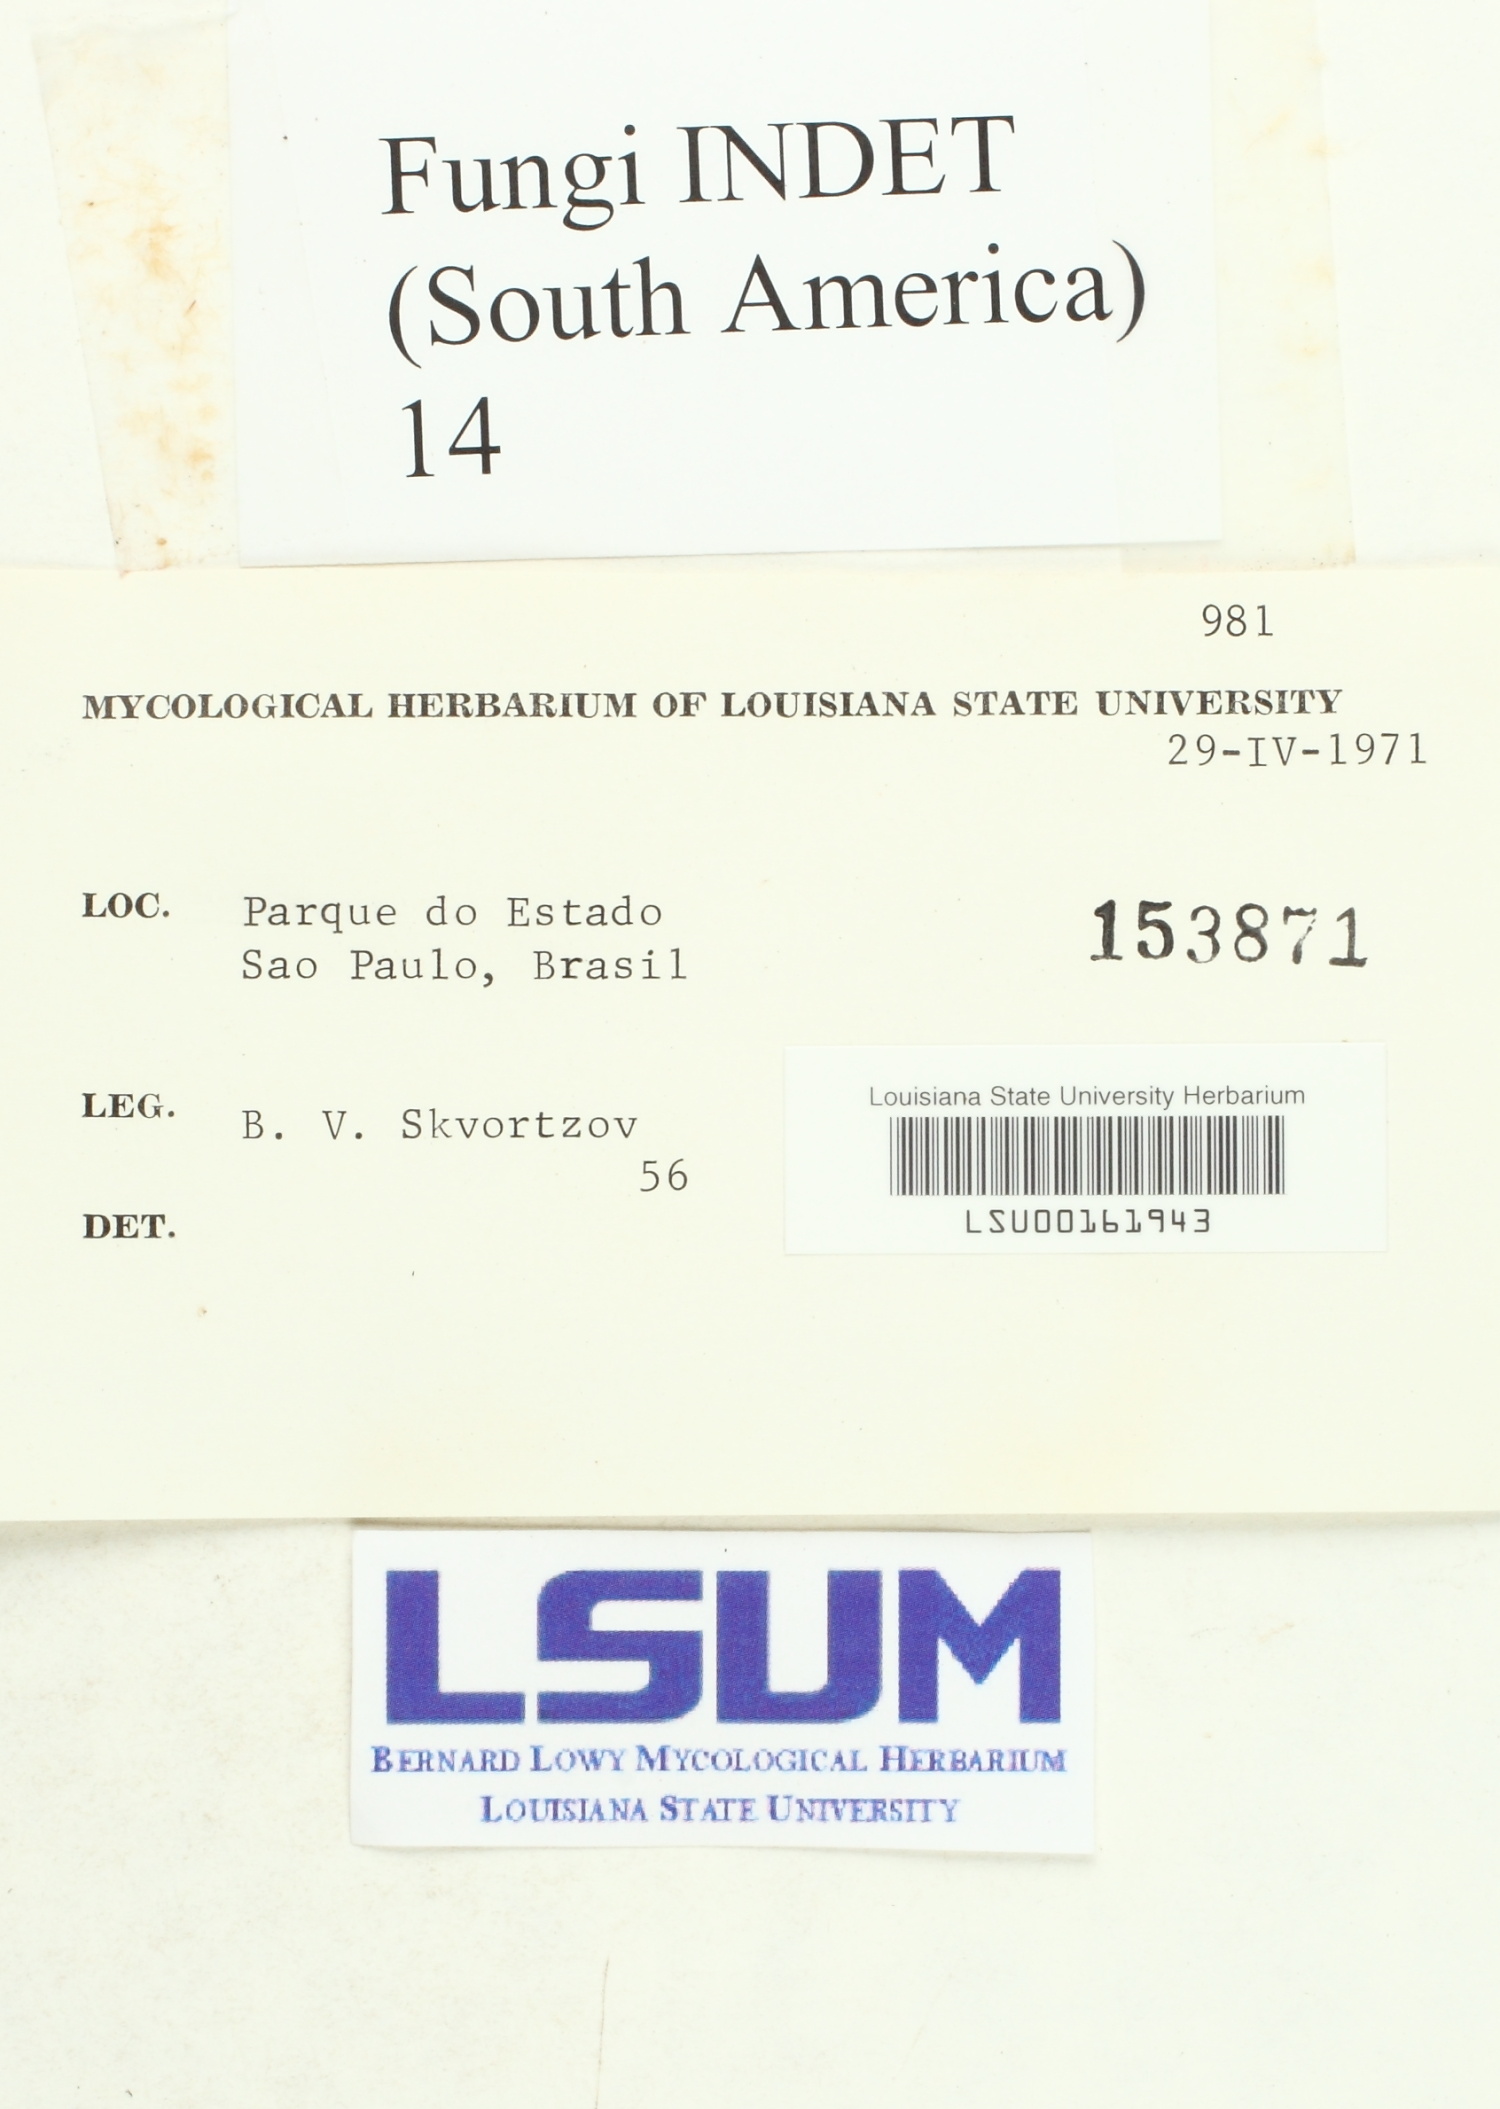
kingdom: Fungi
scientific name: Fungi
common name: Fungi
